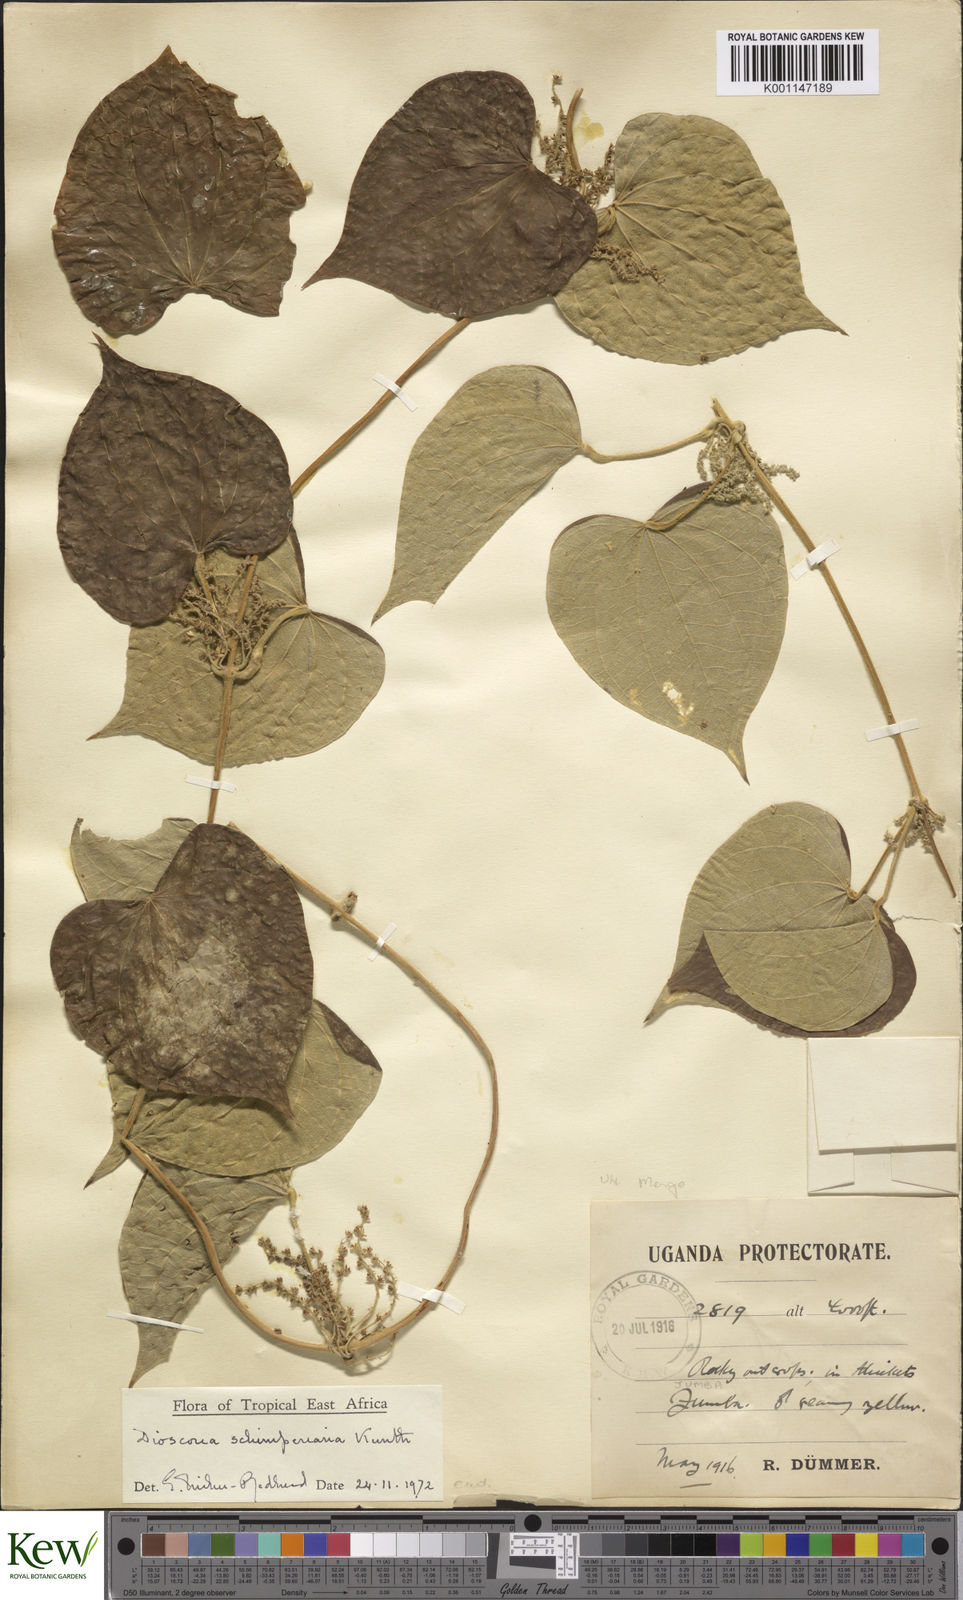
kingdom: Plantae
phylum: Tracheophyta
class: Liliopsida
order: Dioscoreales
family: Dioscoreaceae
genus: Dioscorea
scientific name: Dioscorea schimperiana
